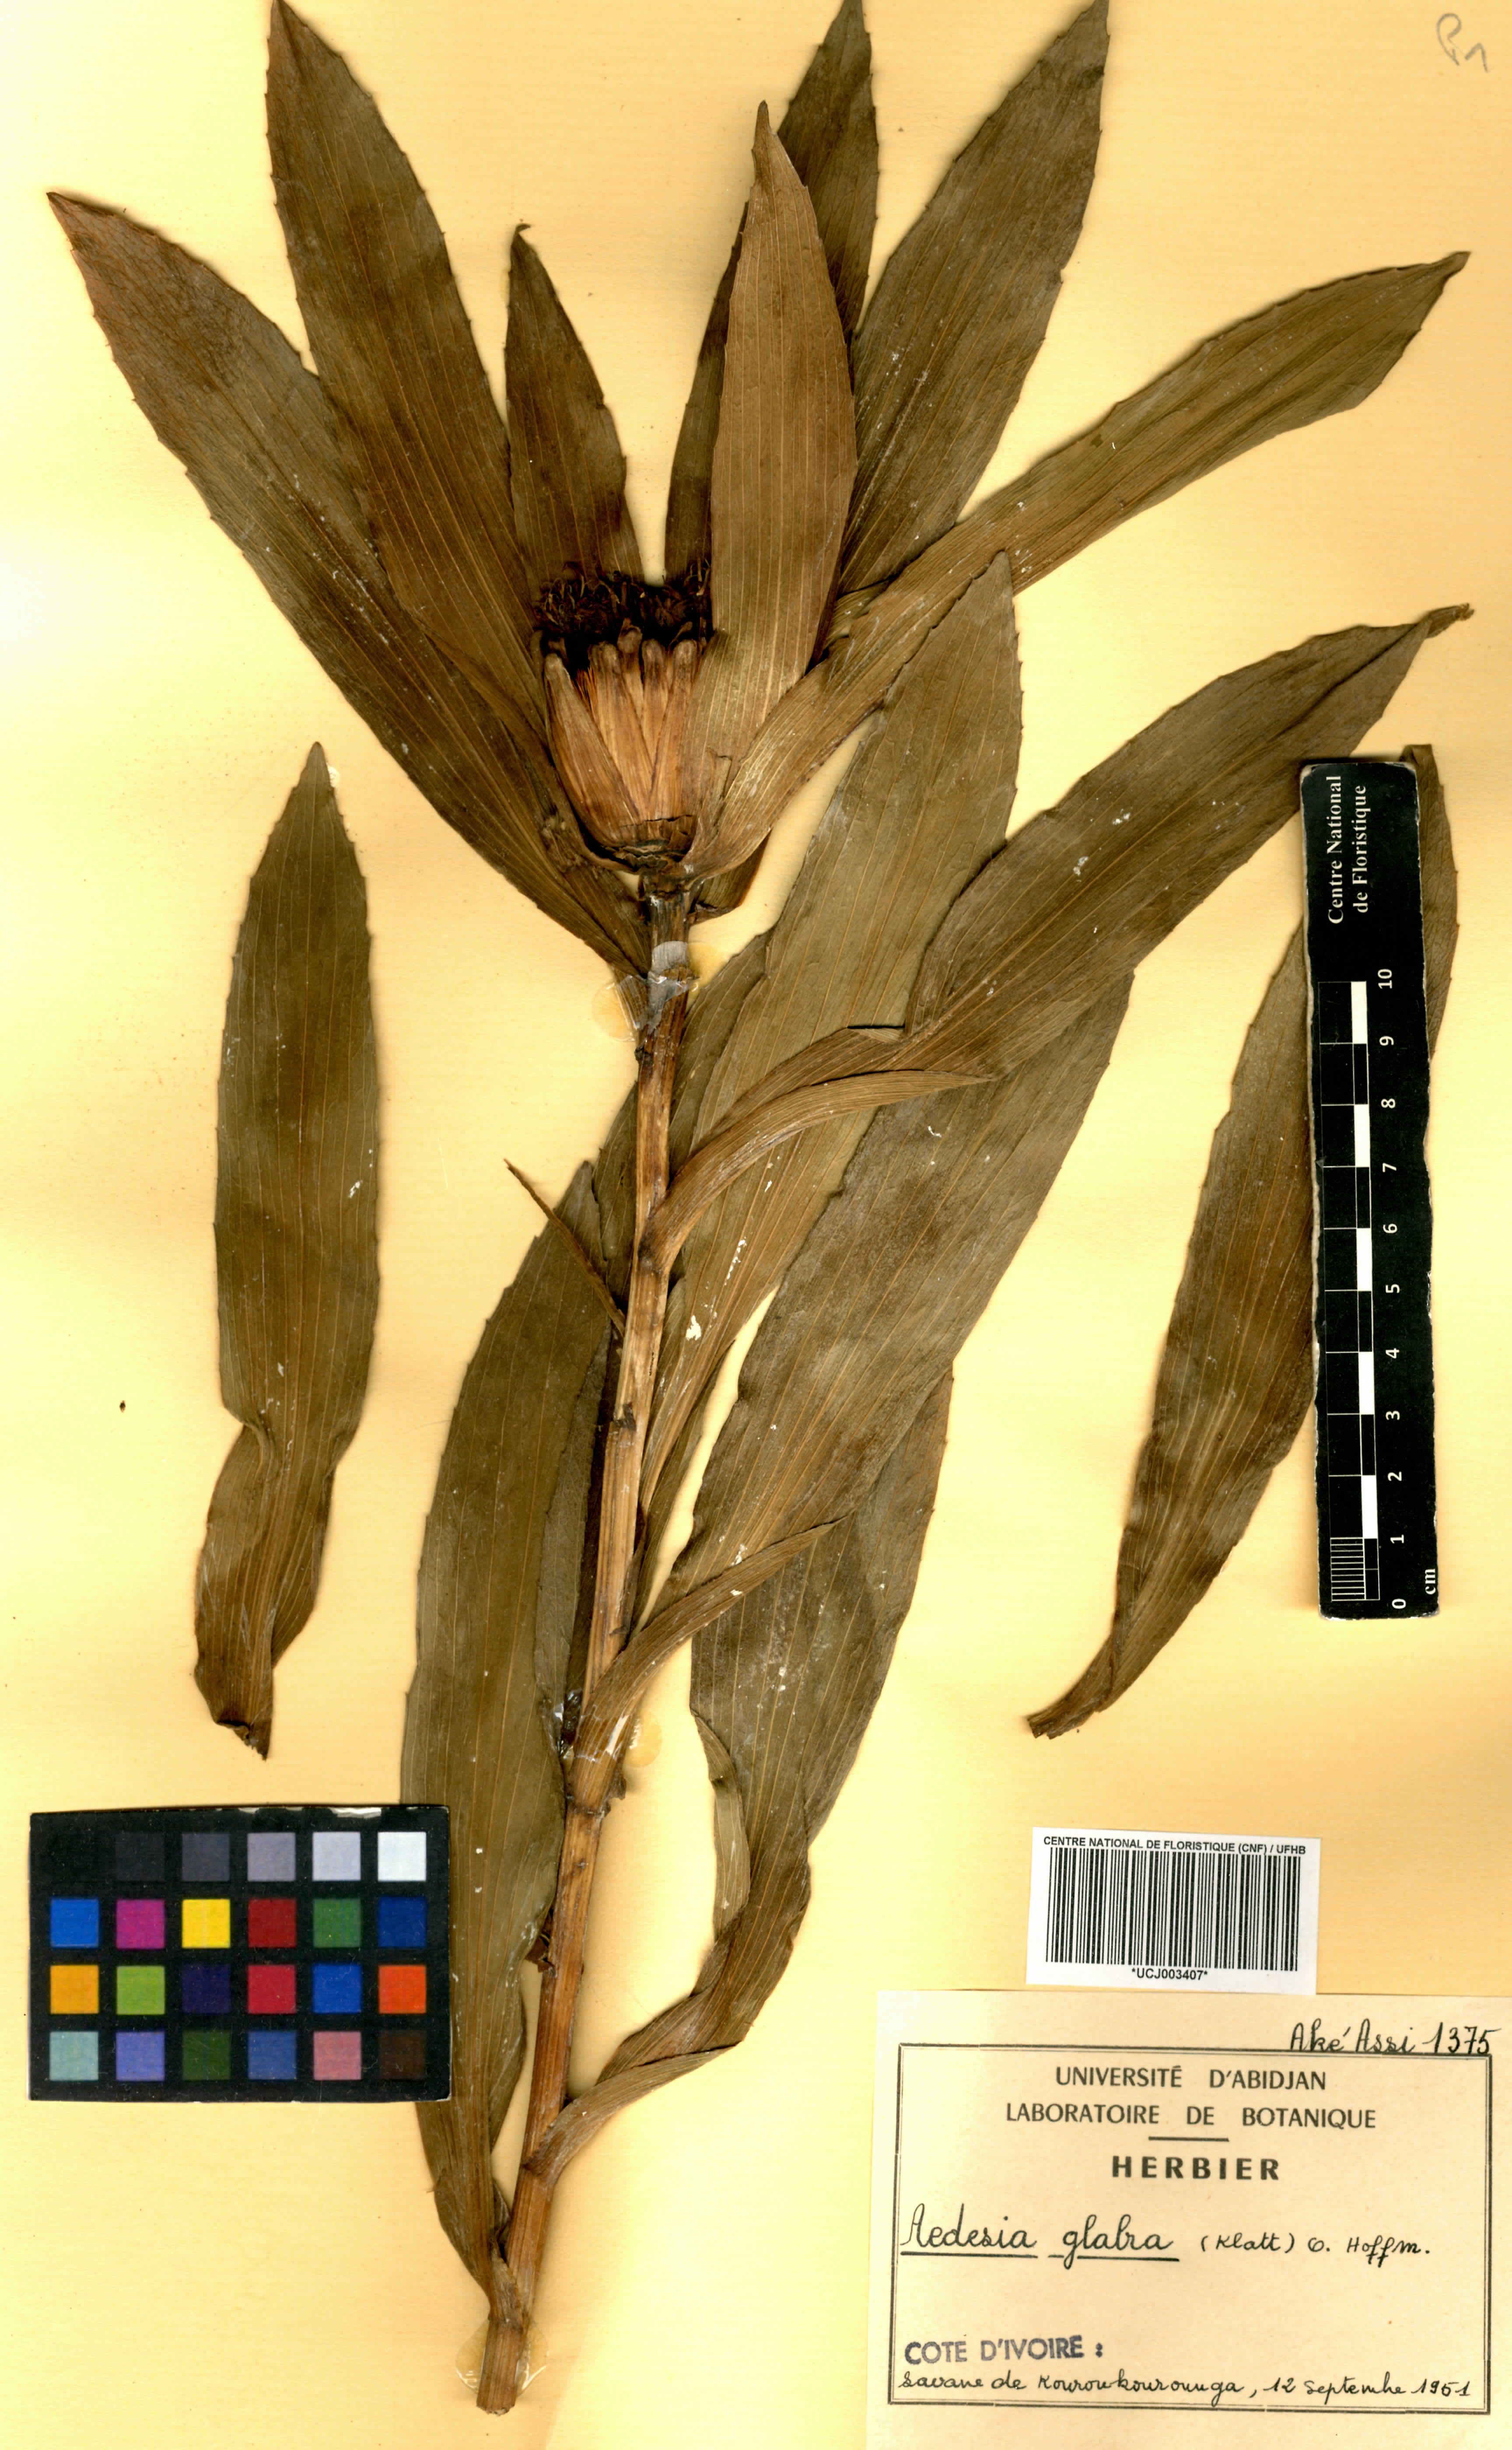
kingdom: Plantae
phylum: Tracheophyta
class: Magnoliopsida
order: Asterales
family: Asteraceae
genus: Aedesia
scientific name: Aedesia glabra
